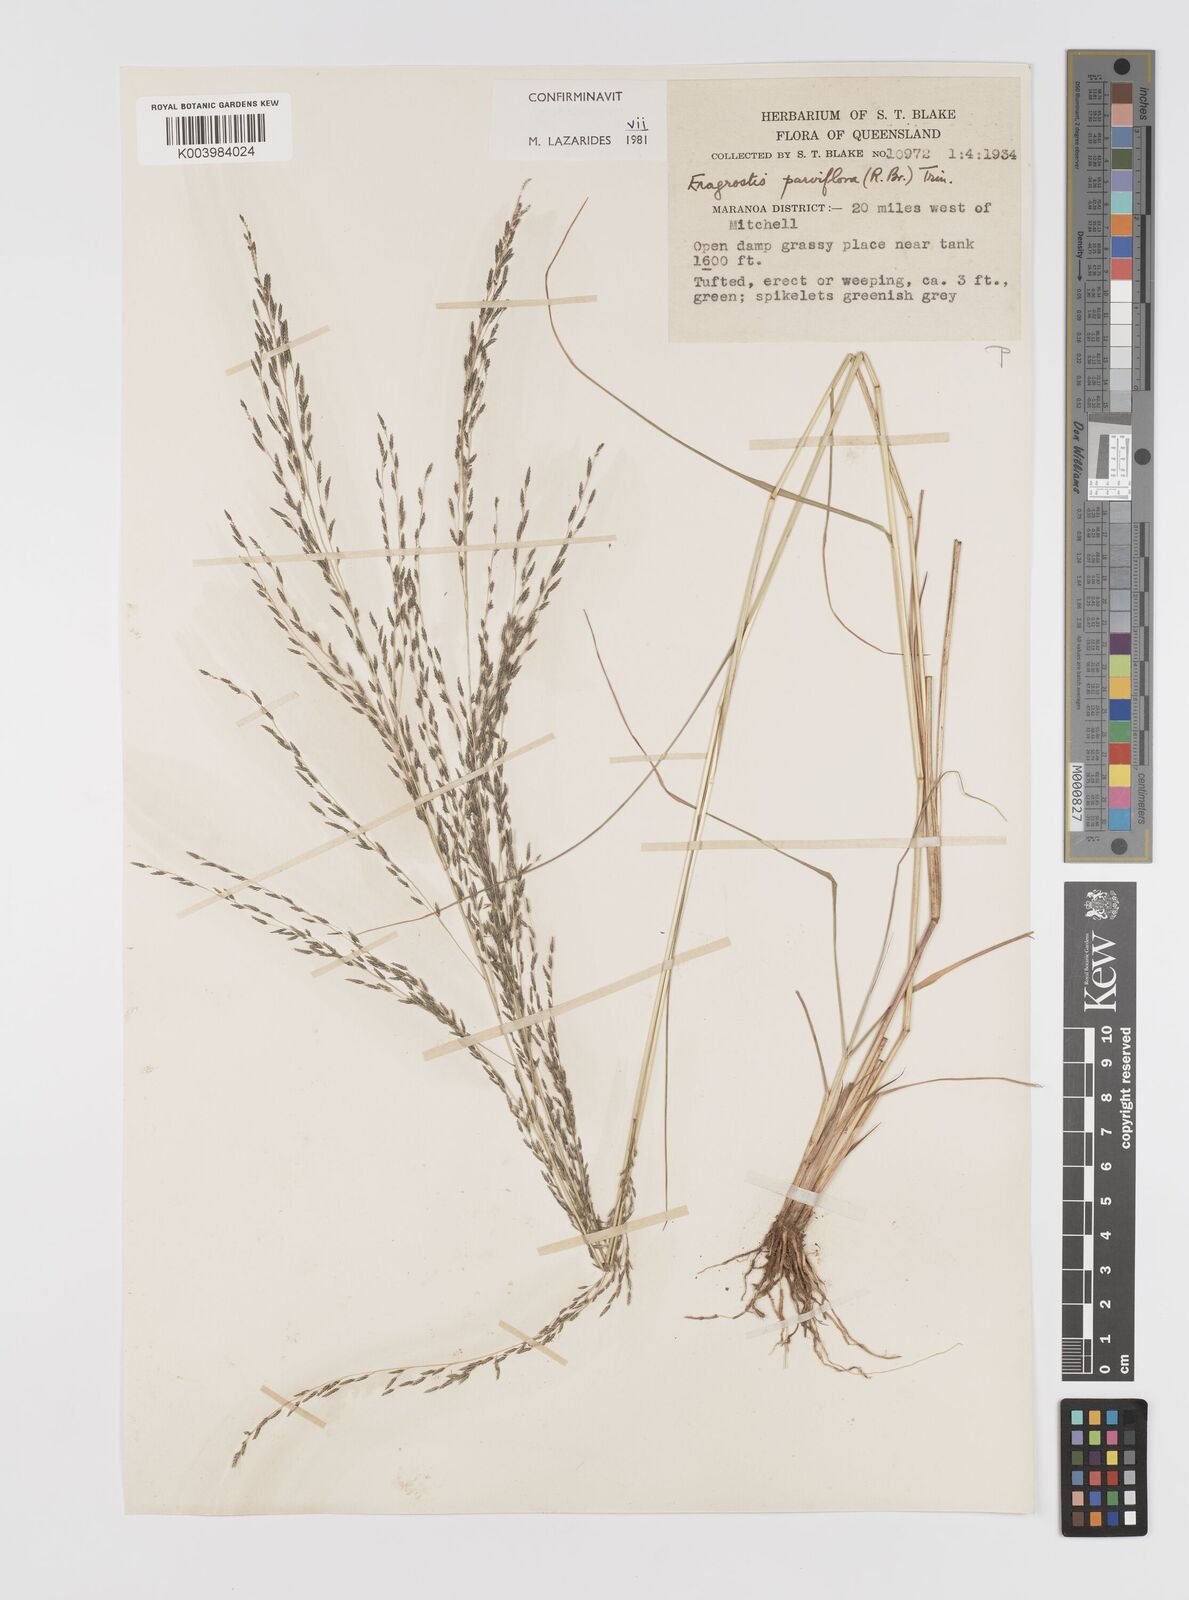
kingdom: Plantae
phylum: Tracheophyta
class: Liliopsida
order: Poales
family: Poaceae
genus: Eragrostis
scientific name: Eragrostis parviflora
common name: Weeping love-grass
